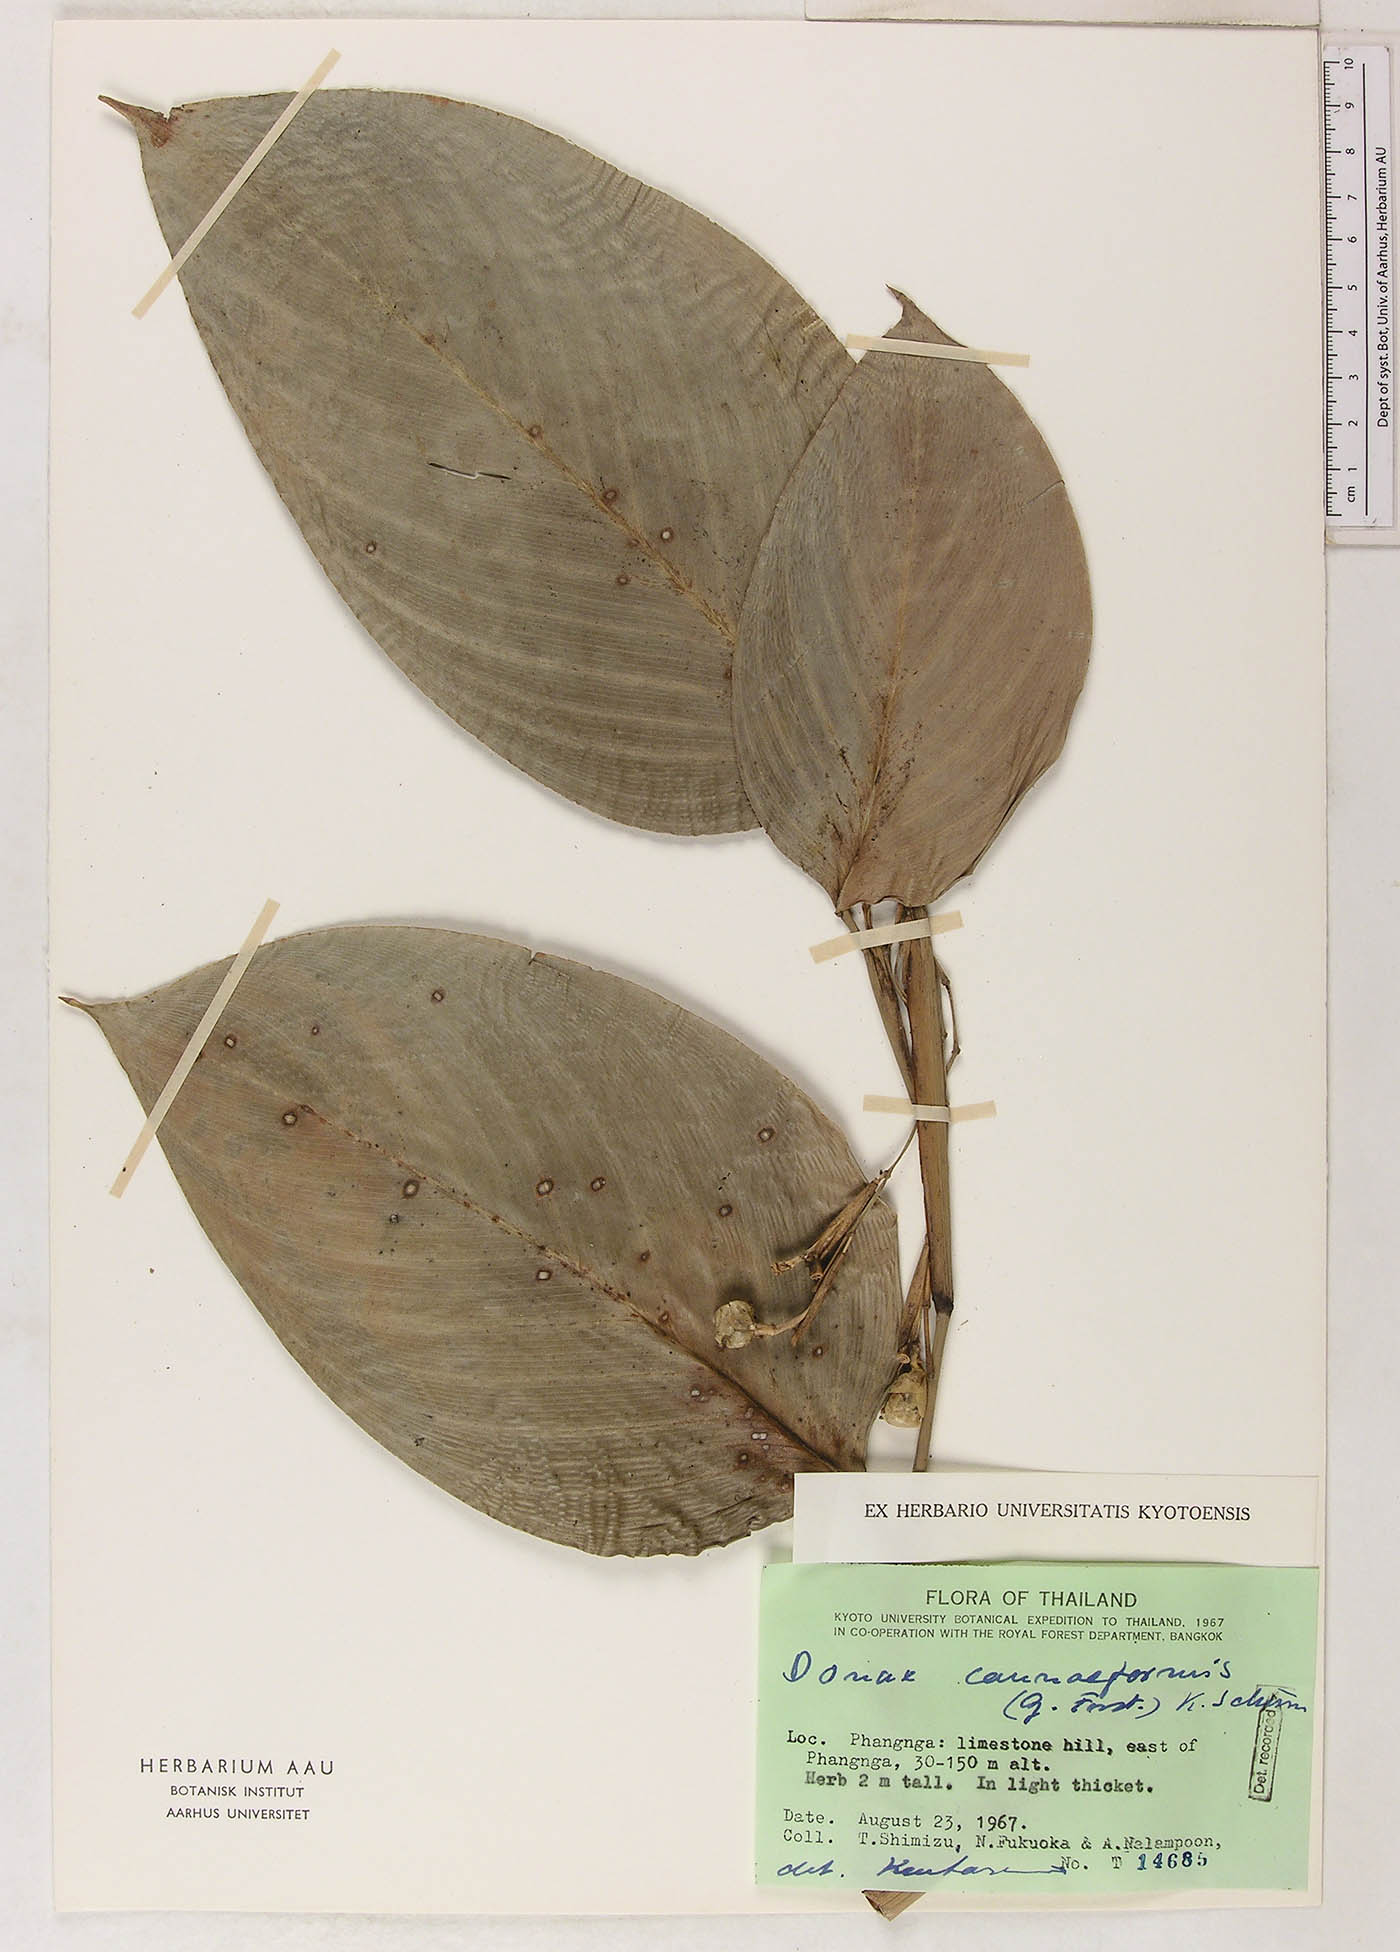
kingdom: Plantae
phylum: Tracheophyta
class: Liliopsida
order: Zingiberales
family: Marantaceae
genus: Donax
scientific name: Donax canniformis
